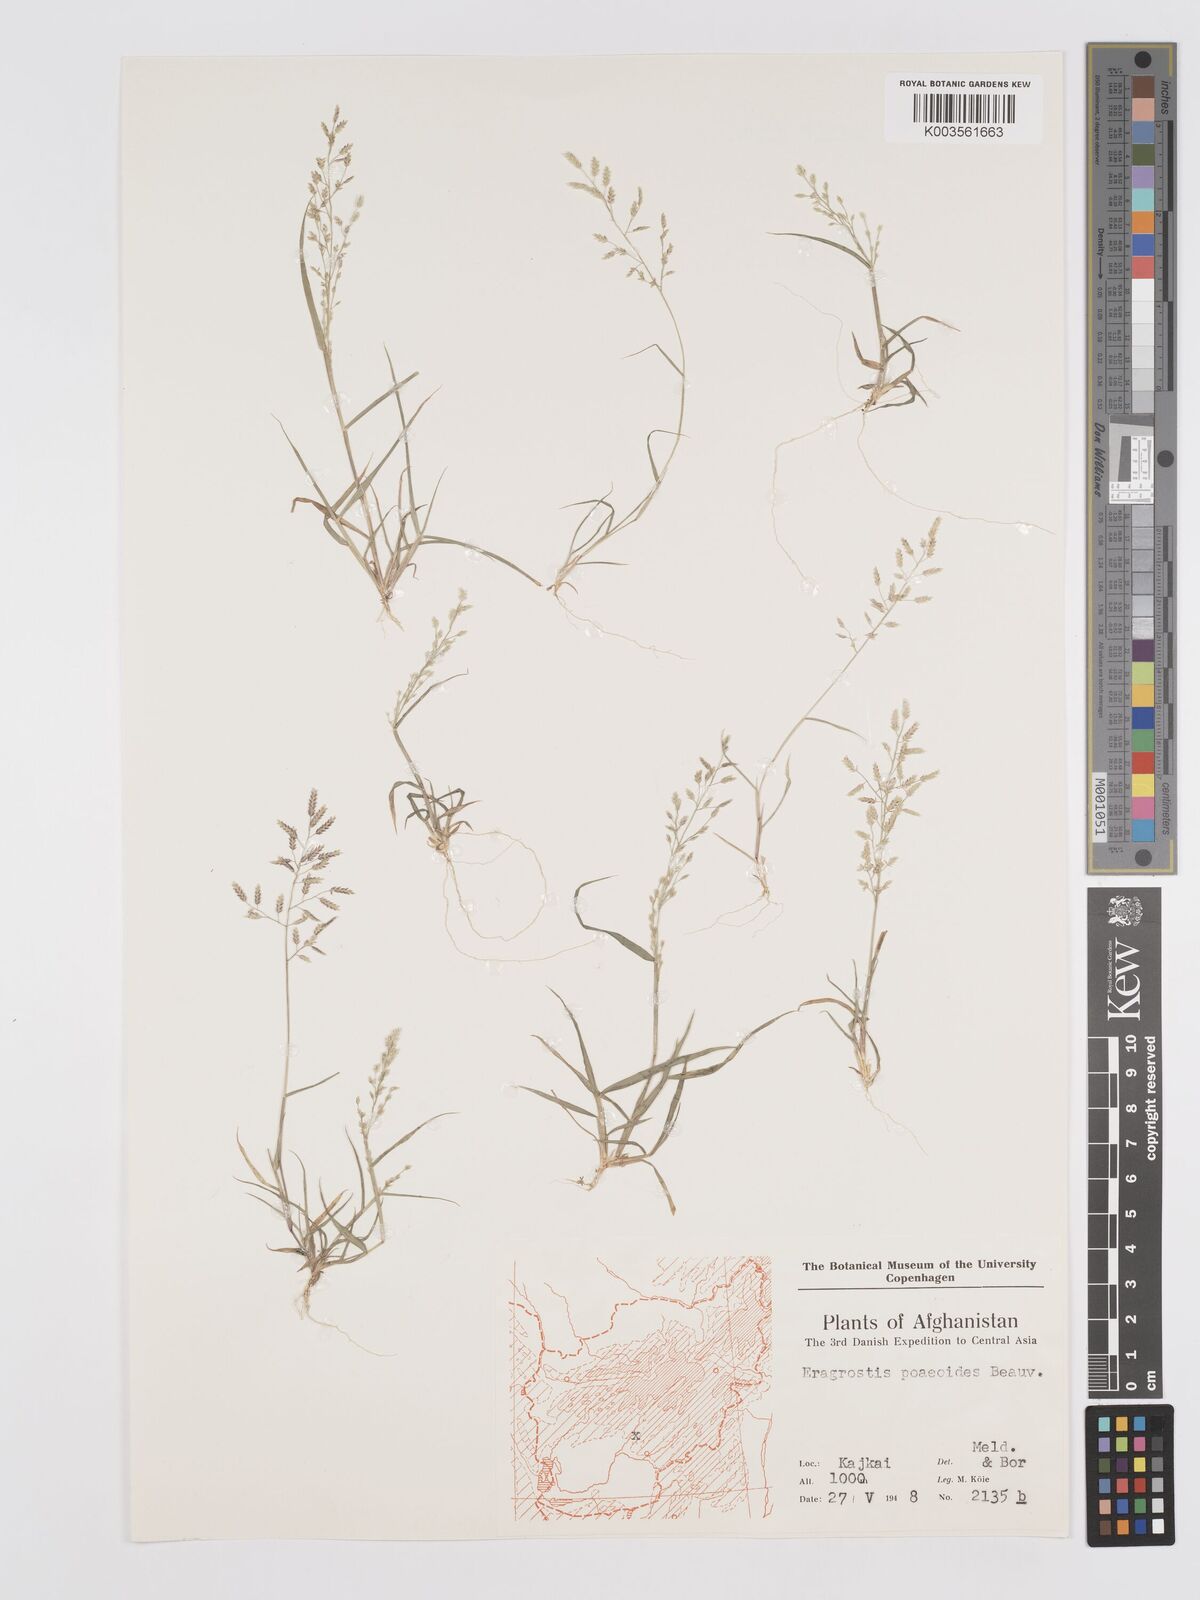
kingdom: Plantae
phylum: Tracheophyta
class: Liliopsida
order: Poales
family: Poaceae
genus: Eragrostis
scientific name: Eragrostis minor
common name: Small love-grass
